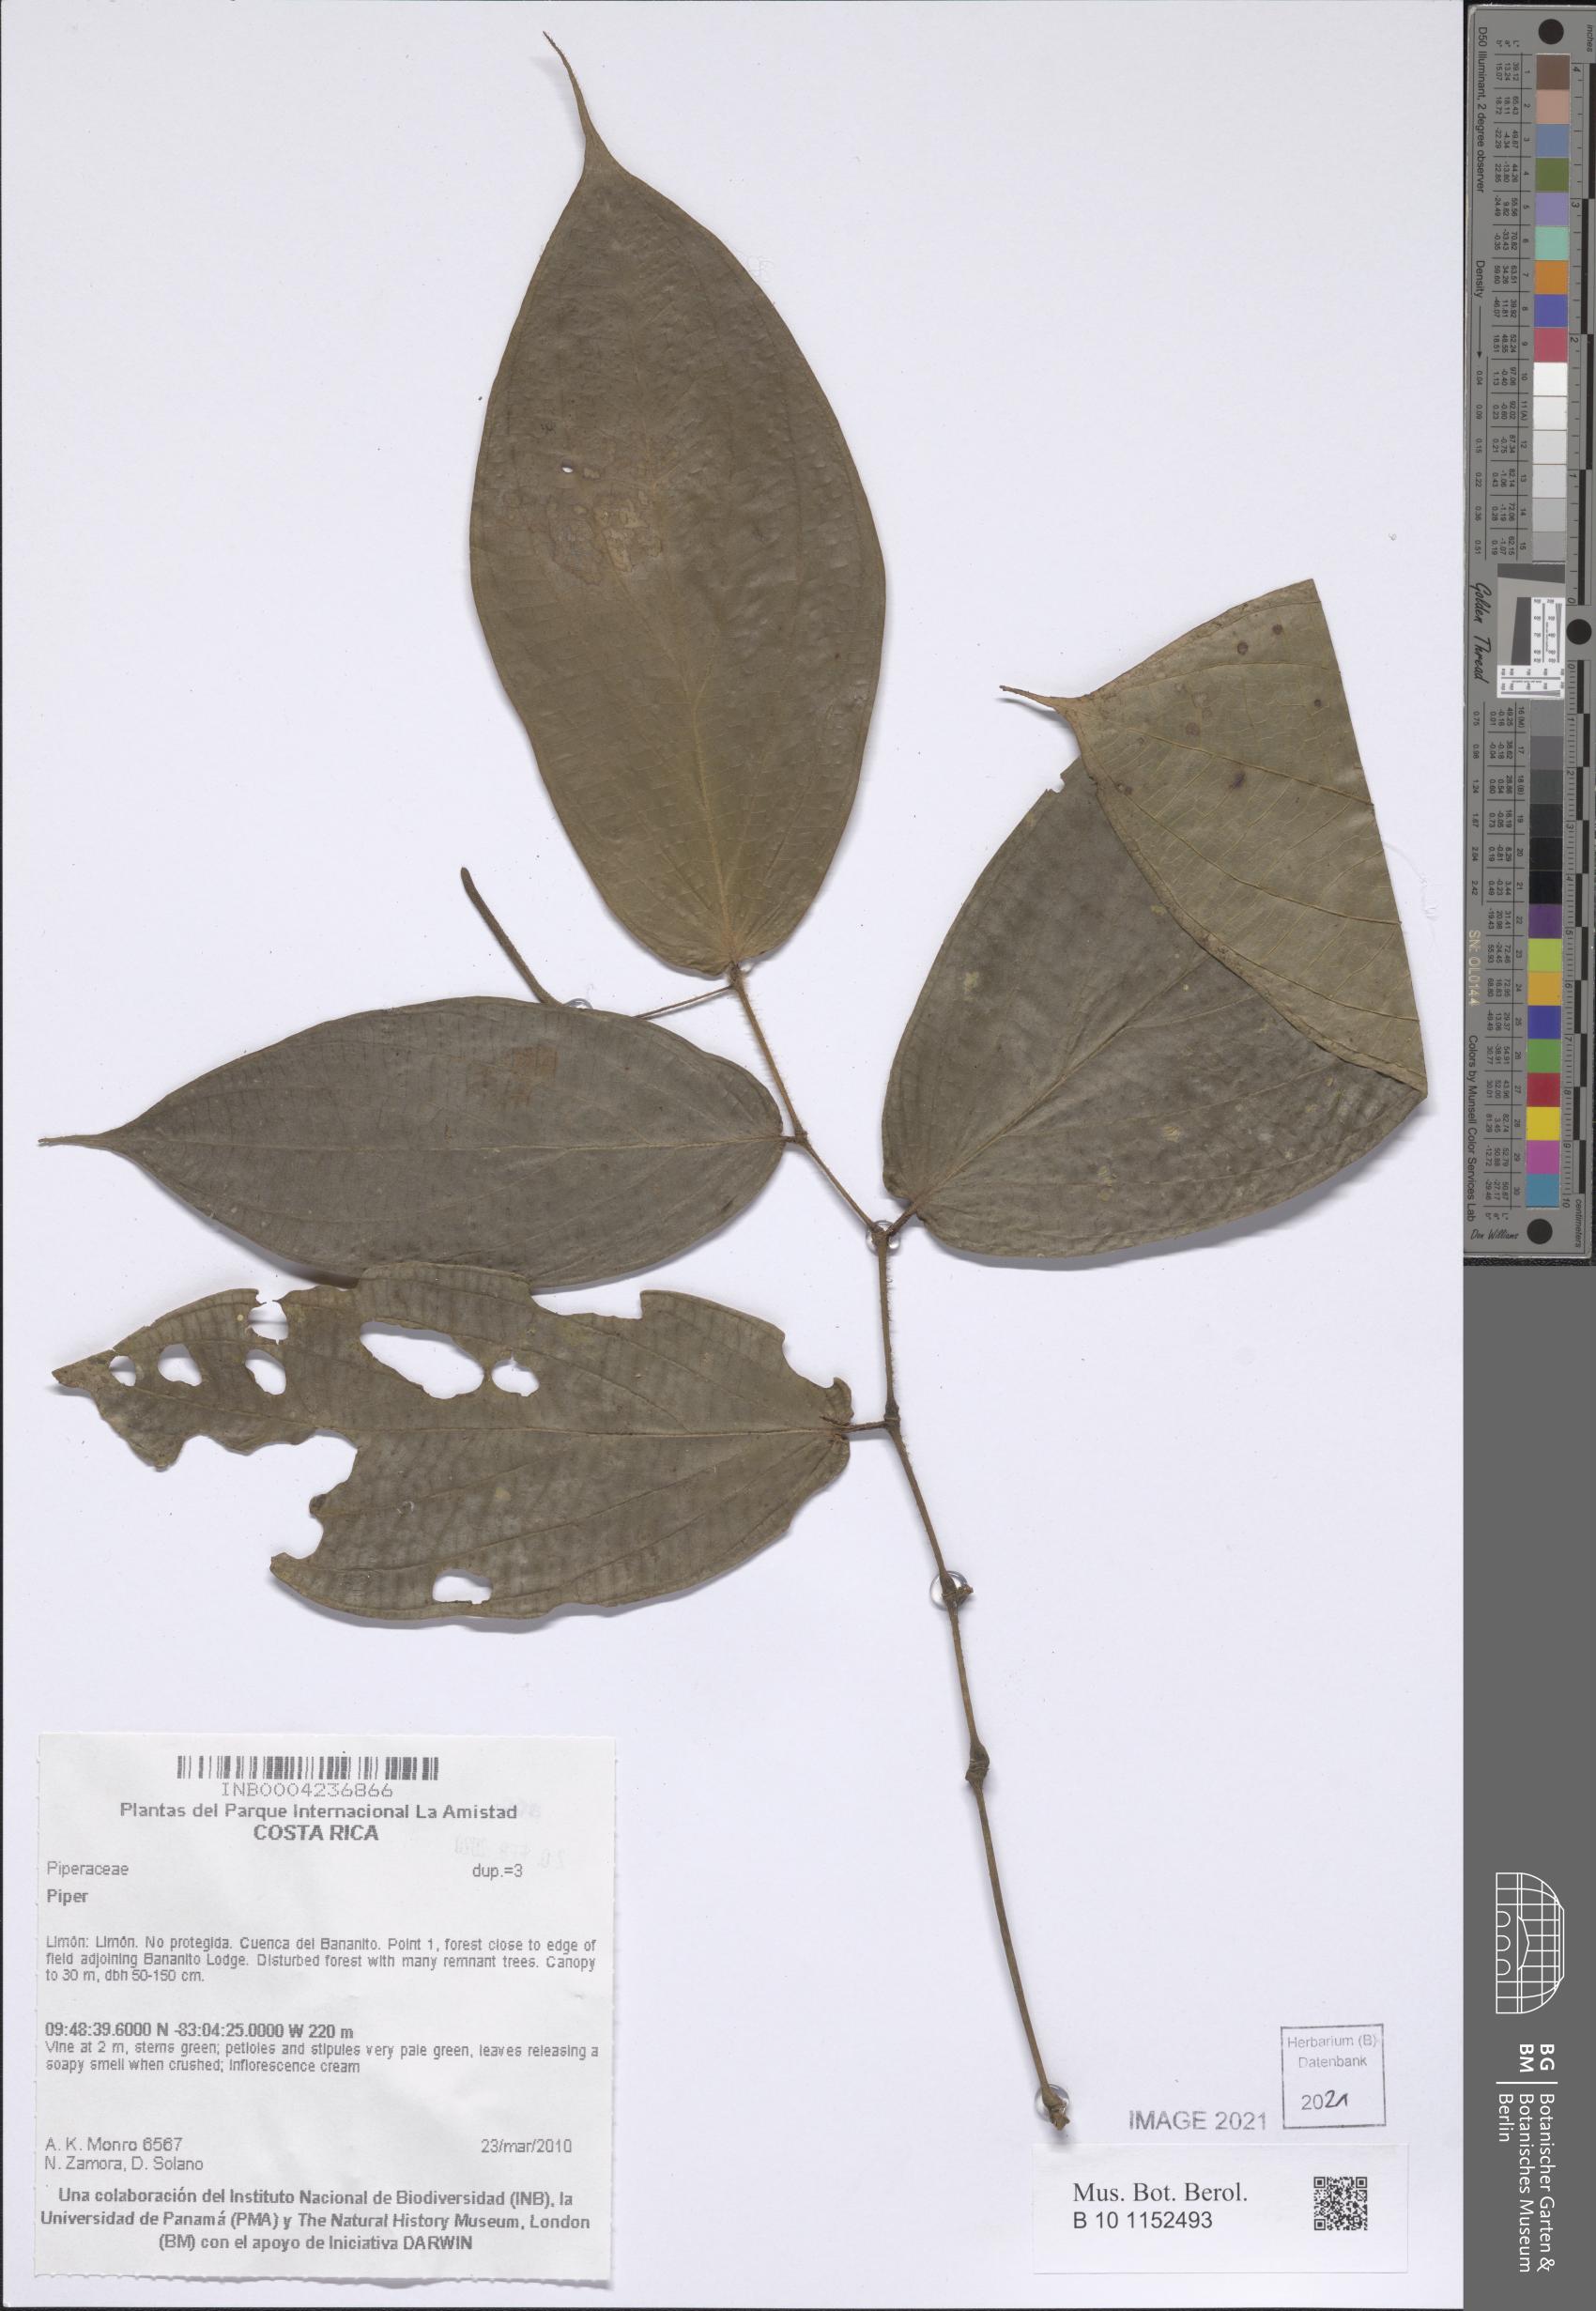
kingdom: Plantae
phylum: Tracheophyta
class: Magnoliopsida
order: Piperales
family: Piperaceae
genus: Piper
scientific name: Piper
